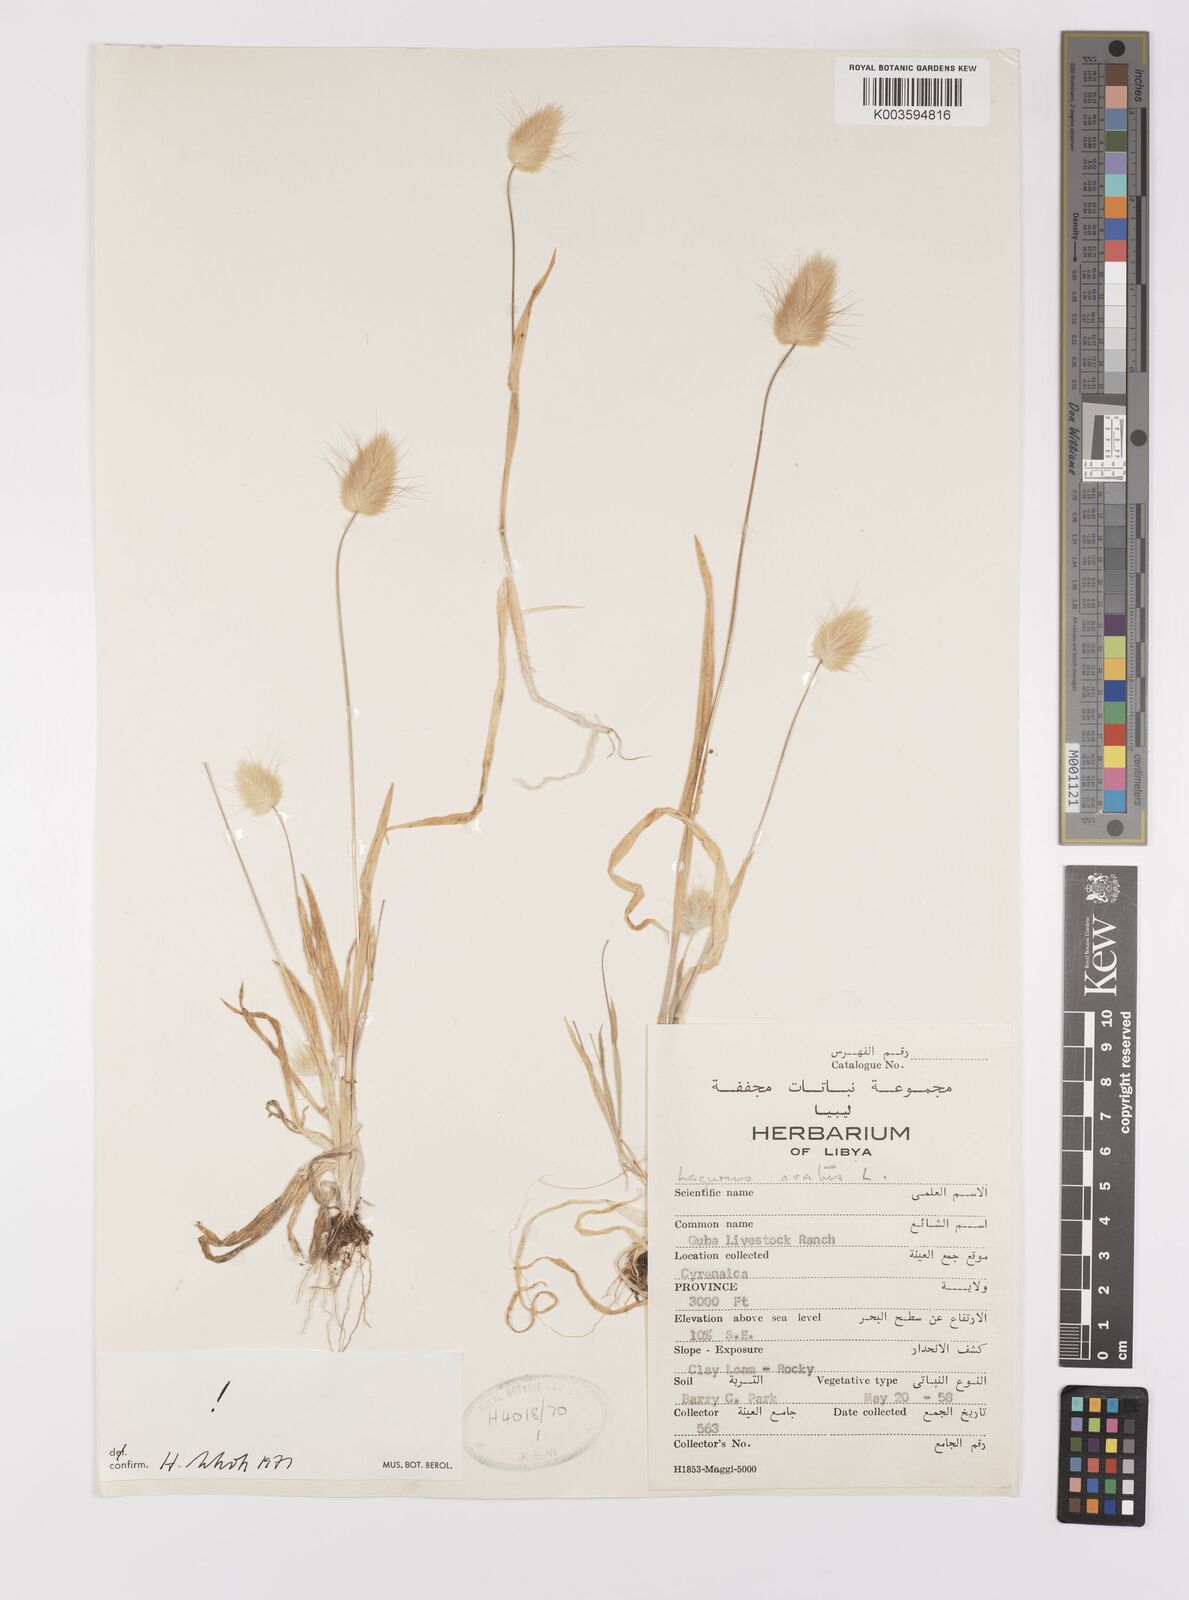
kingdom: Plantae
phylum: Tracheophyta
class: Liliopsida
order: Poales
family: Poaceae
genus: Lagurus
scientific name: Lagurus ovatus
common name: Hare's-tail
